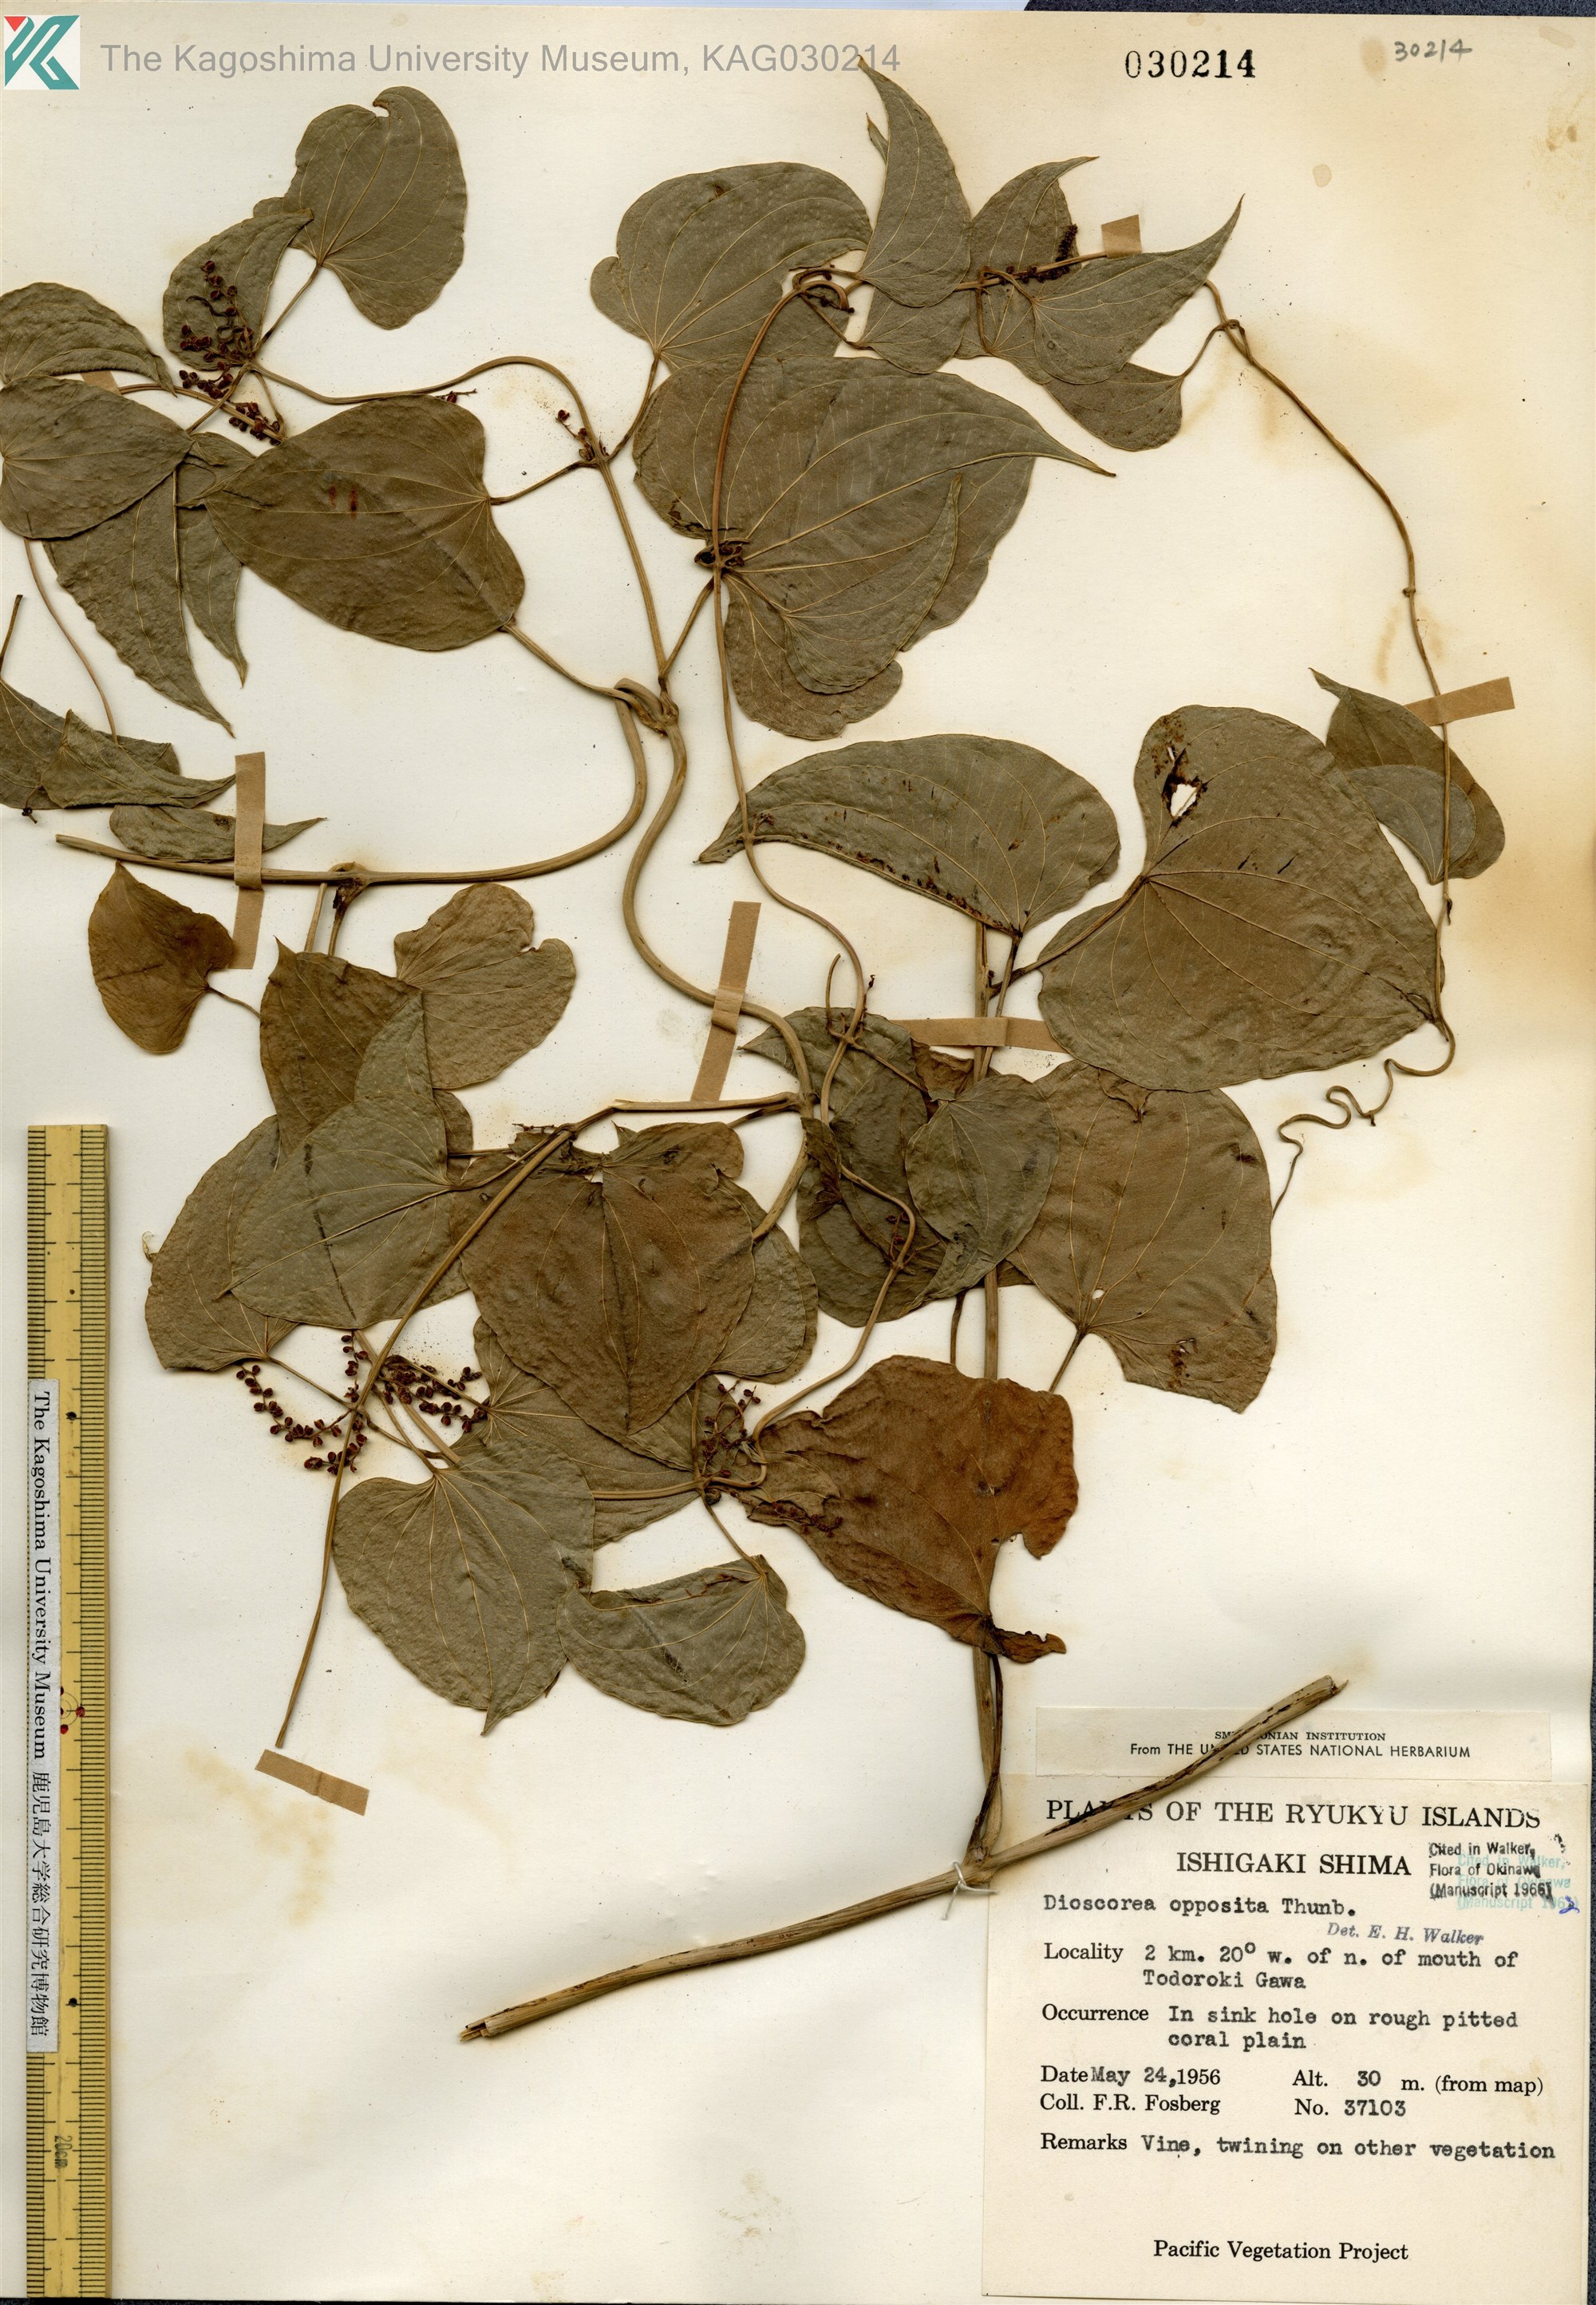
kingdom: Plantae
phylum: Tracheophyta
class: Liliopsida
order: Dioscoreales
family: Dioscoreaceae
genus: Dioscorea
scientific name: Dioscorea polystachya
